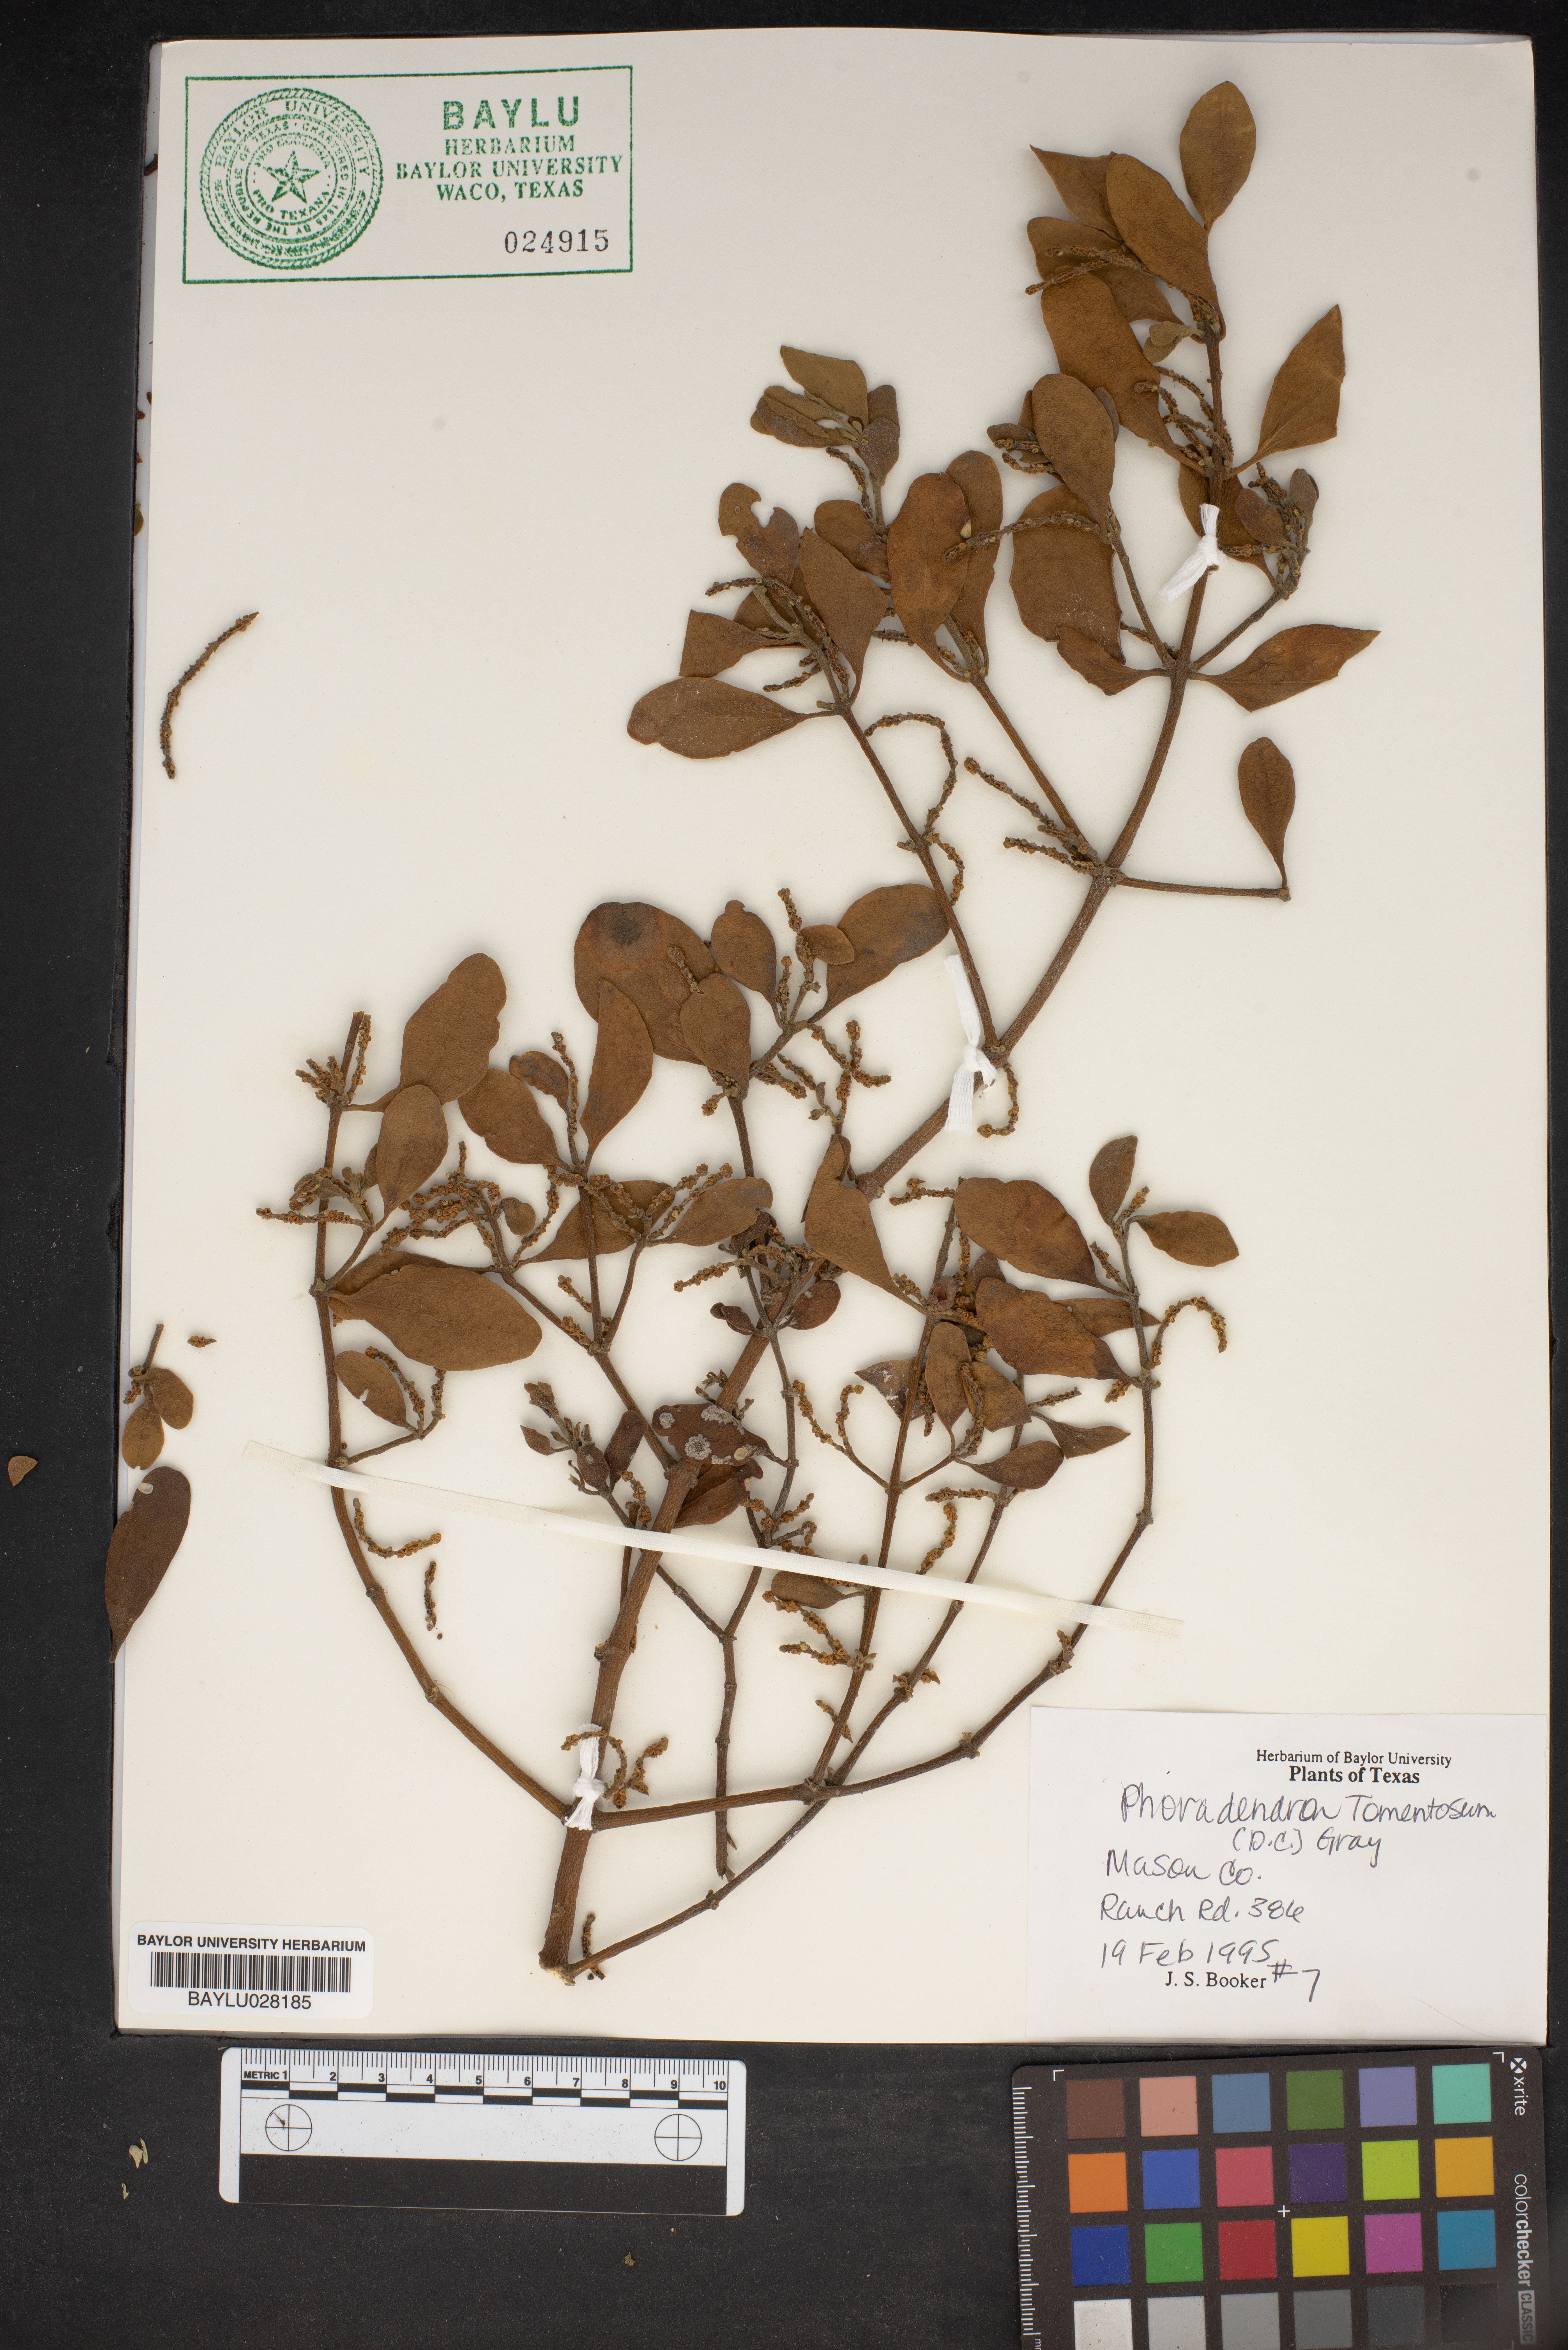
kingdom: Plantae
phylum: Tracheophyta
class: Magnoliopsida
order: Santalales
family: Viscaceae
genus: Phoradendron
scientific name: Phoradendron leucarpum
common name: Pacific mistletoe
